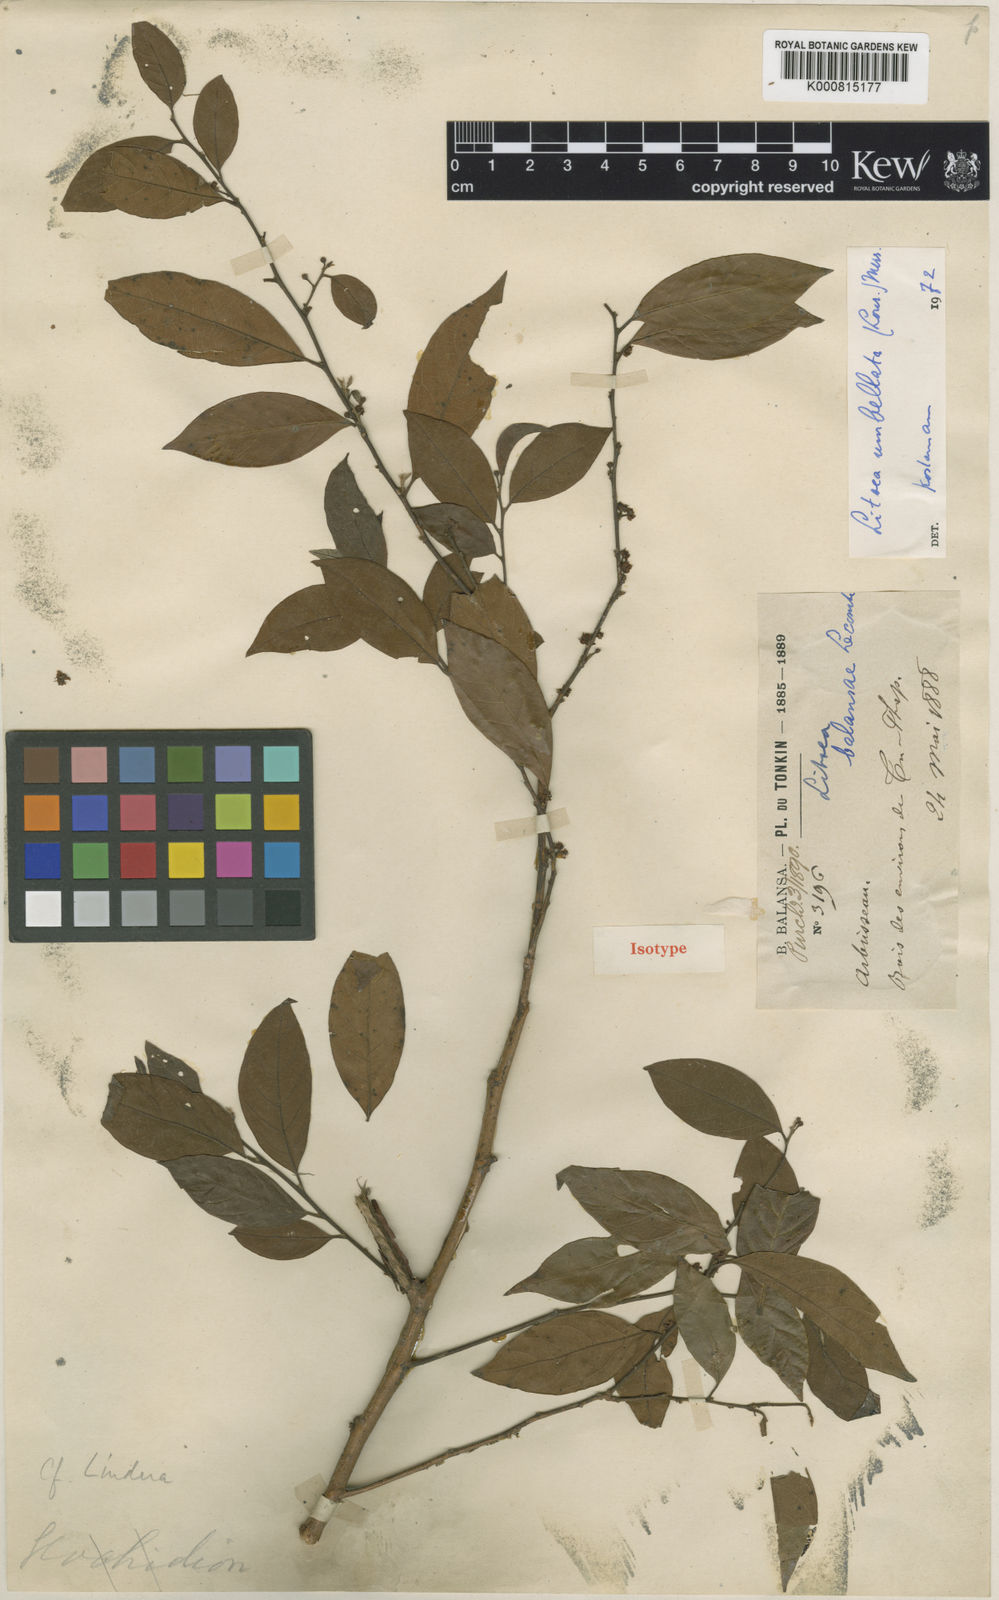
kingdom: Plantae
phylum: Tracheophyta
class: Magnoliopsida
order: Laurales
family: Lauraceae
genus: Litsea
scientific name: Litsea umbellata
